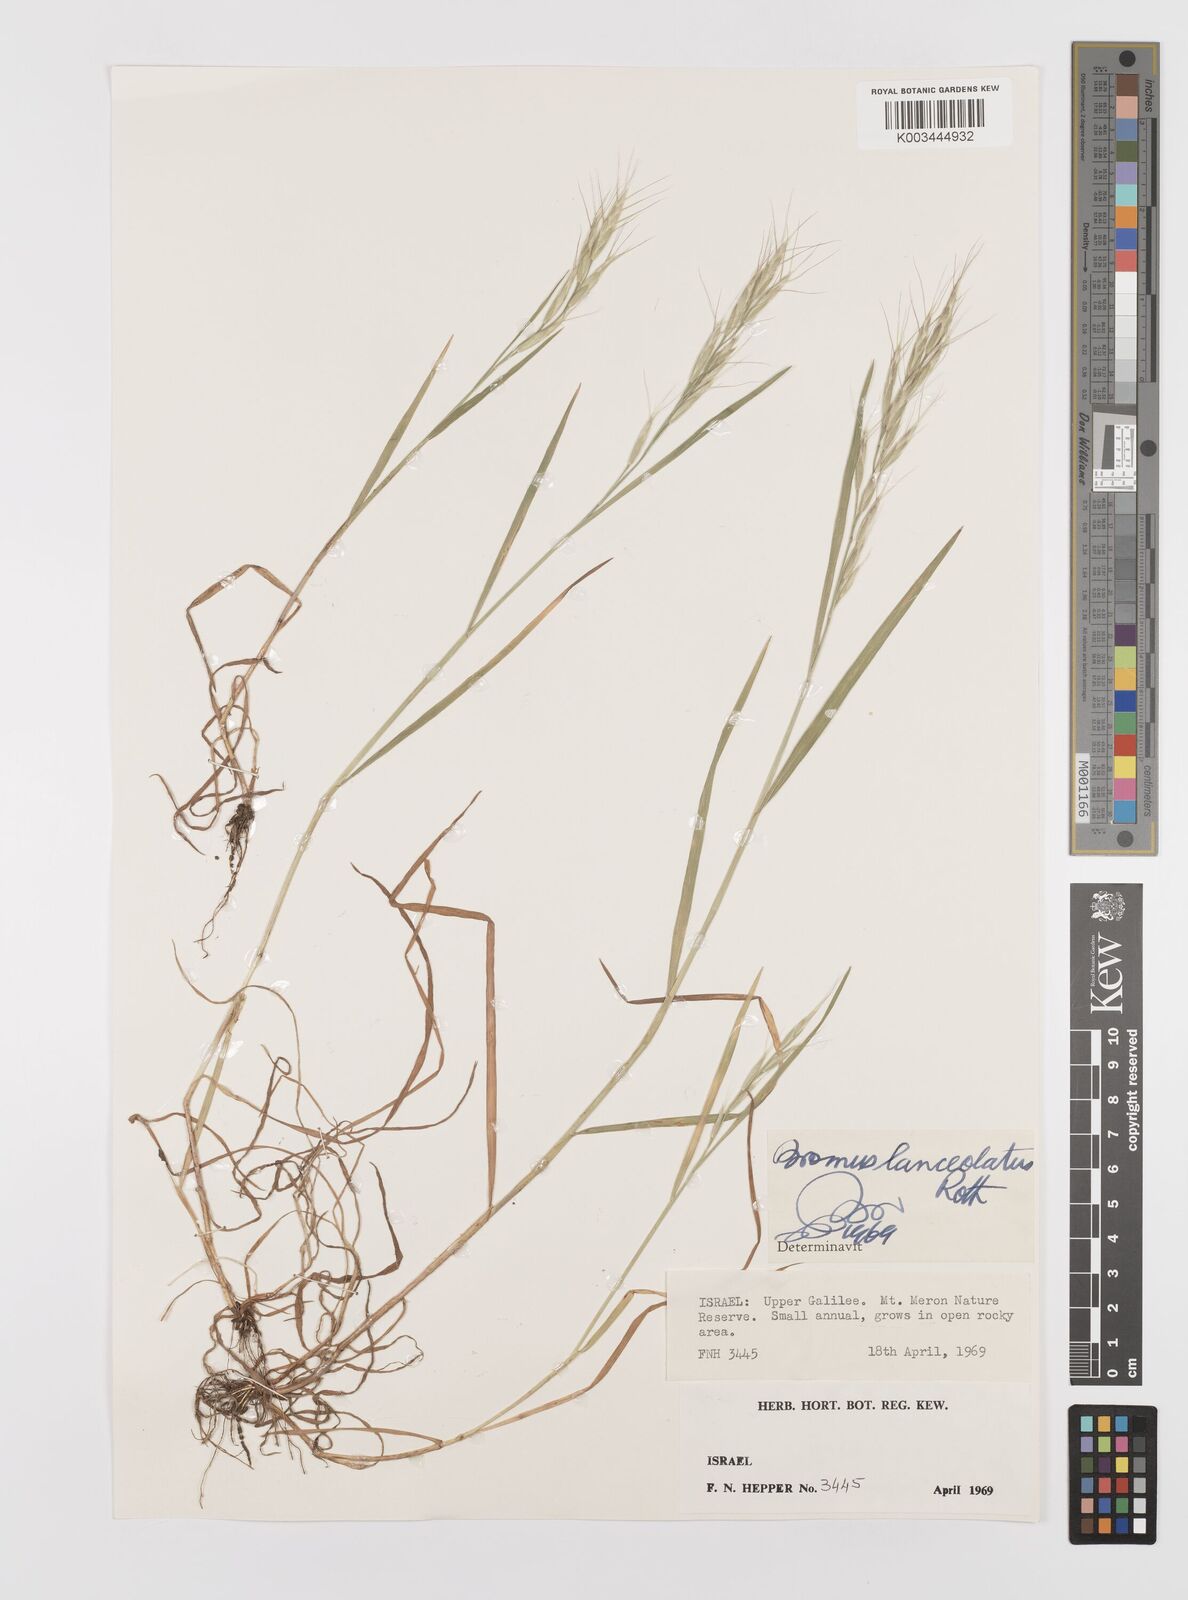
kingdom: Plantae
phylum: Tracheophyta
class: Liliopsida
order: Poales
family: Poaceae
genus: Bromus
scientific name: Bromus lanceolatus
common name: Mediterranean brome
